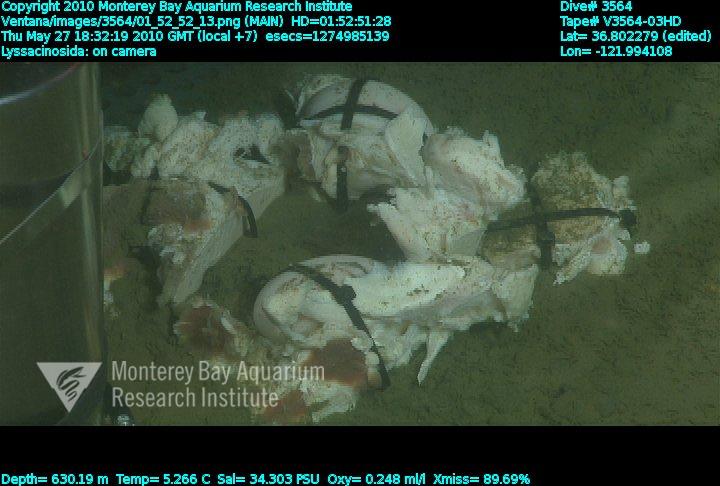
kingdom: Animalia
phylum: Porifera
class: Hexactinellida
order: Lyssacinosida
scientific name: Lyssacinosida
